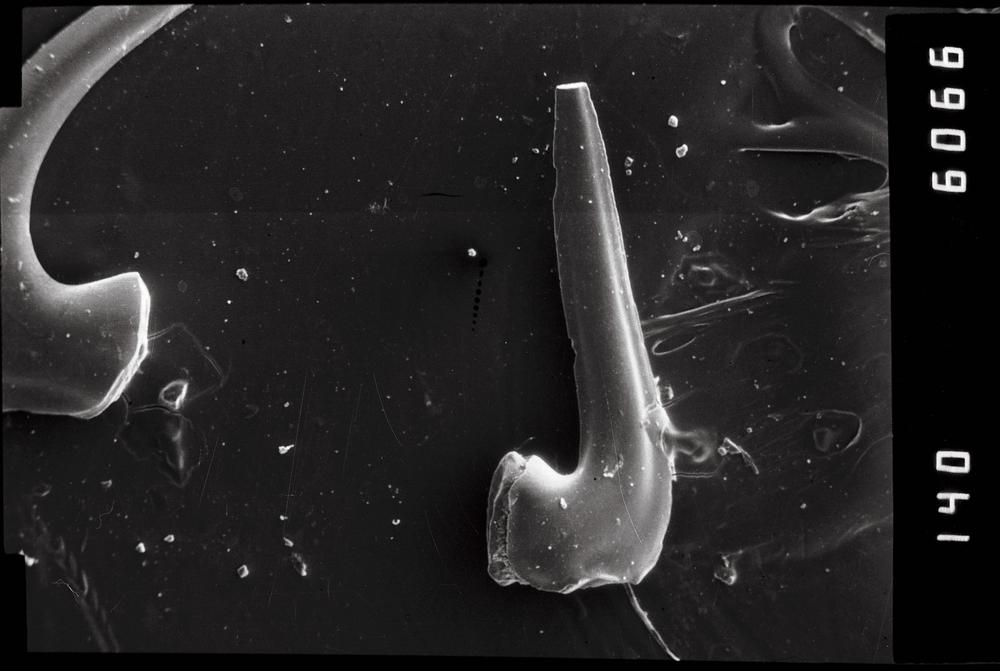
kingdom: Animalia
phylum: Chordata
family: Acodontidae
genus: Acodus
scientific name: Acodus similaris
